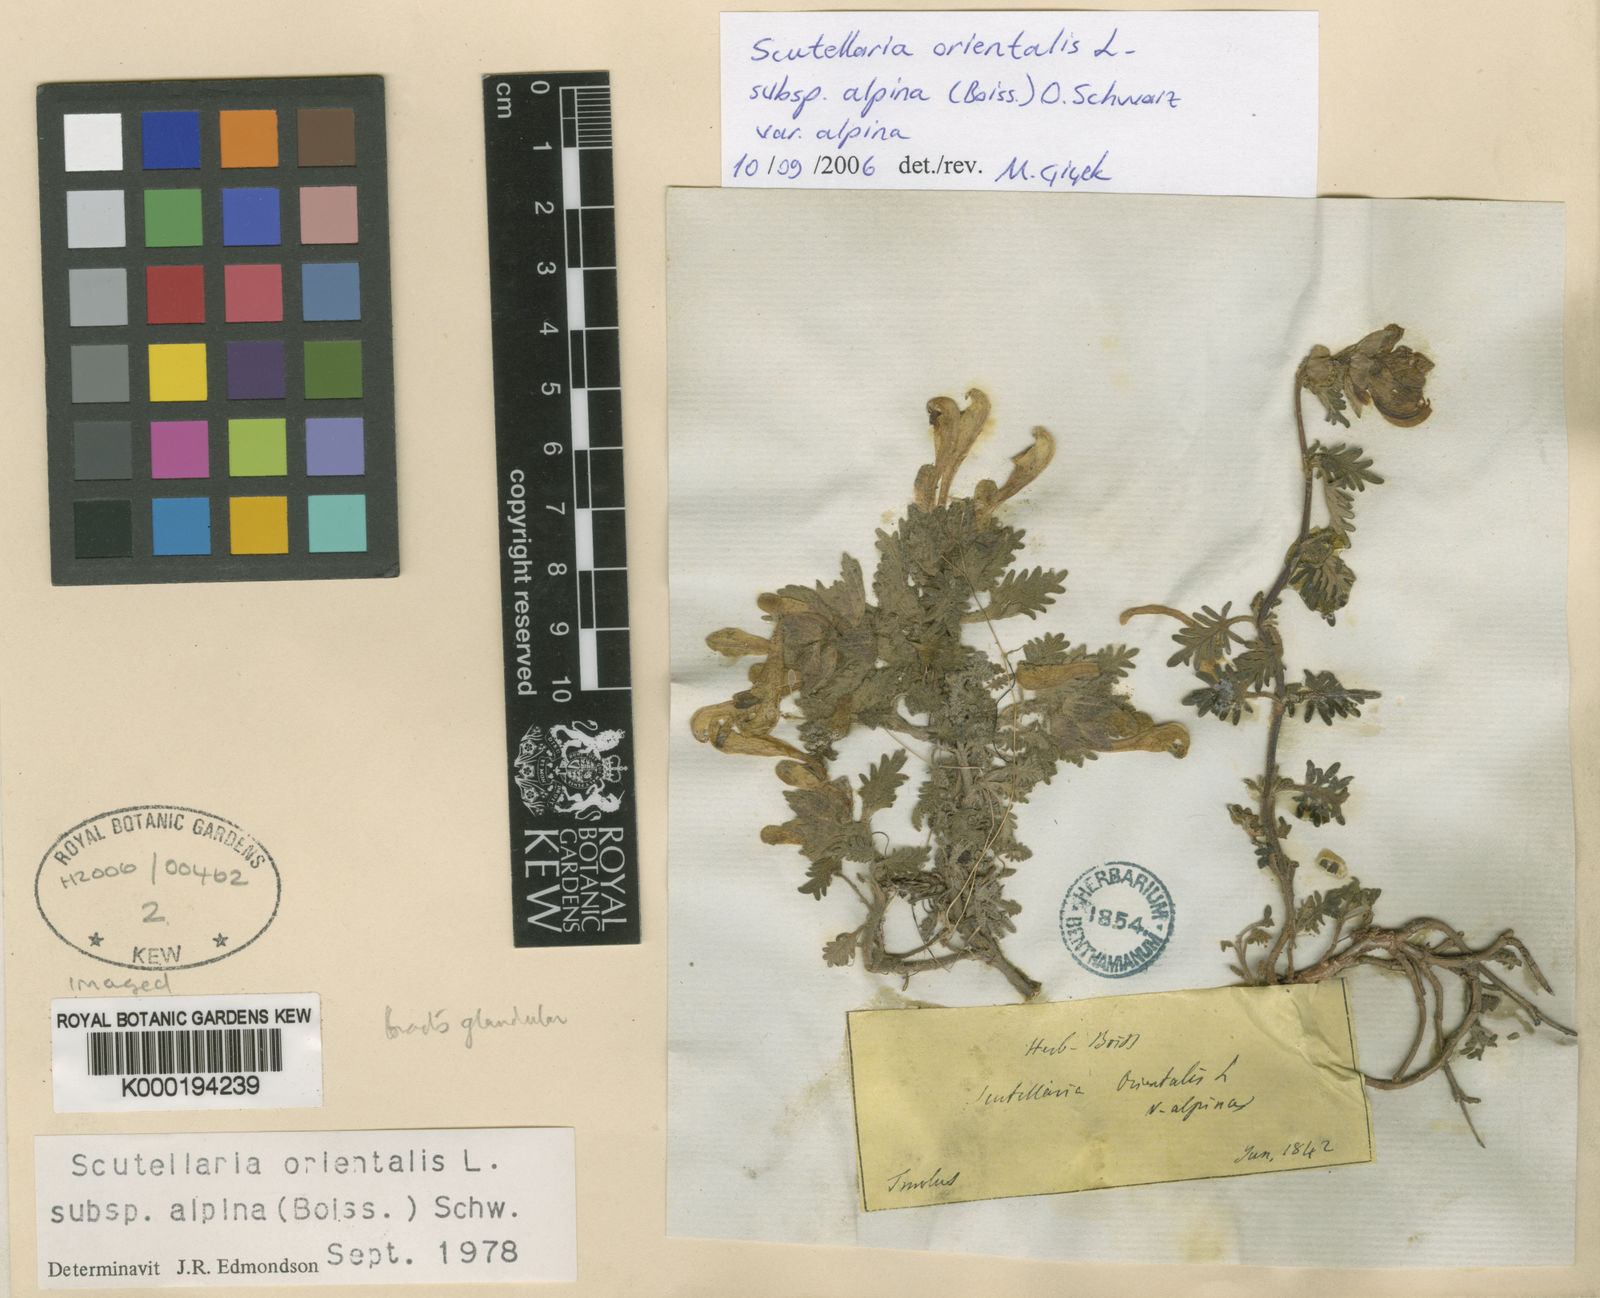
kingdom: Plantae
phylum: Tracheophyta
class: Magnoliopsida
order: Lamiales
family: Lamiaceae
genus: Scutellaria
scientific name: Scutellaria orientalis
